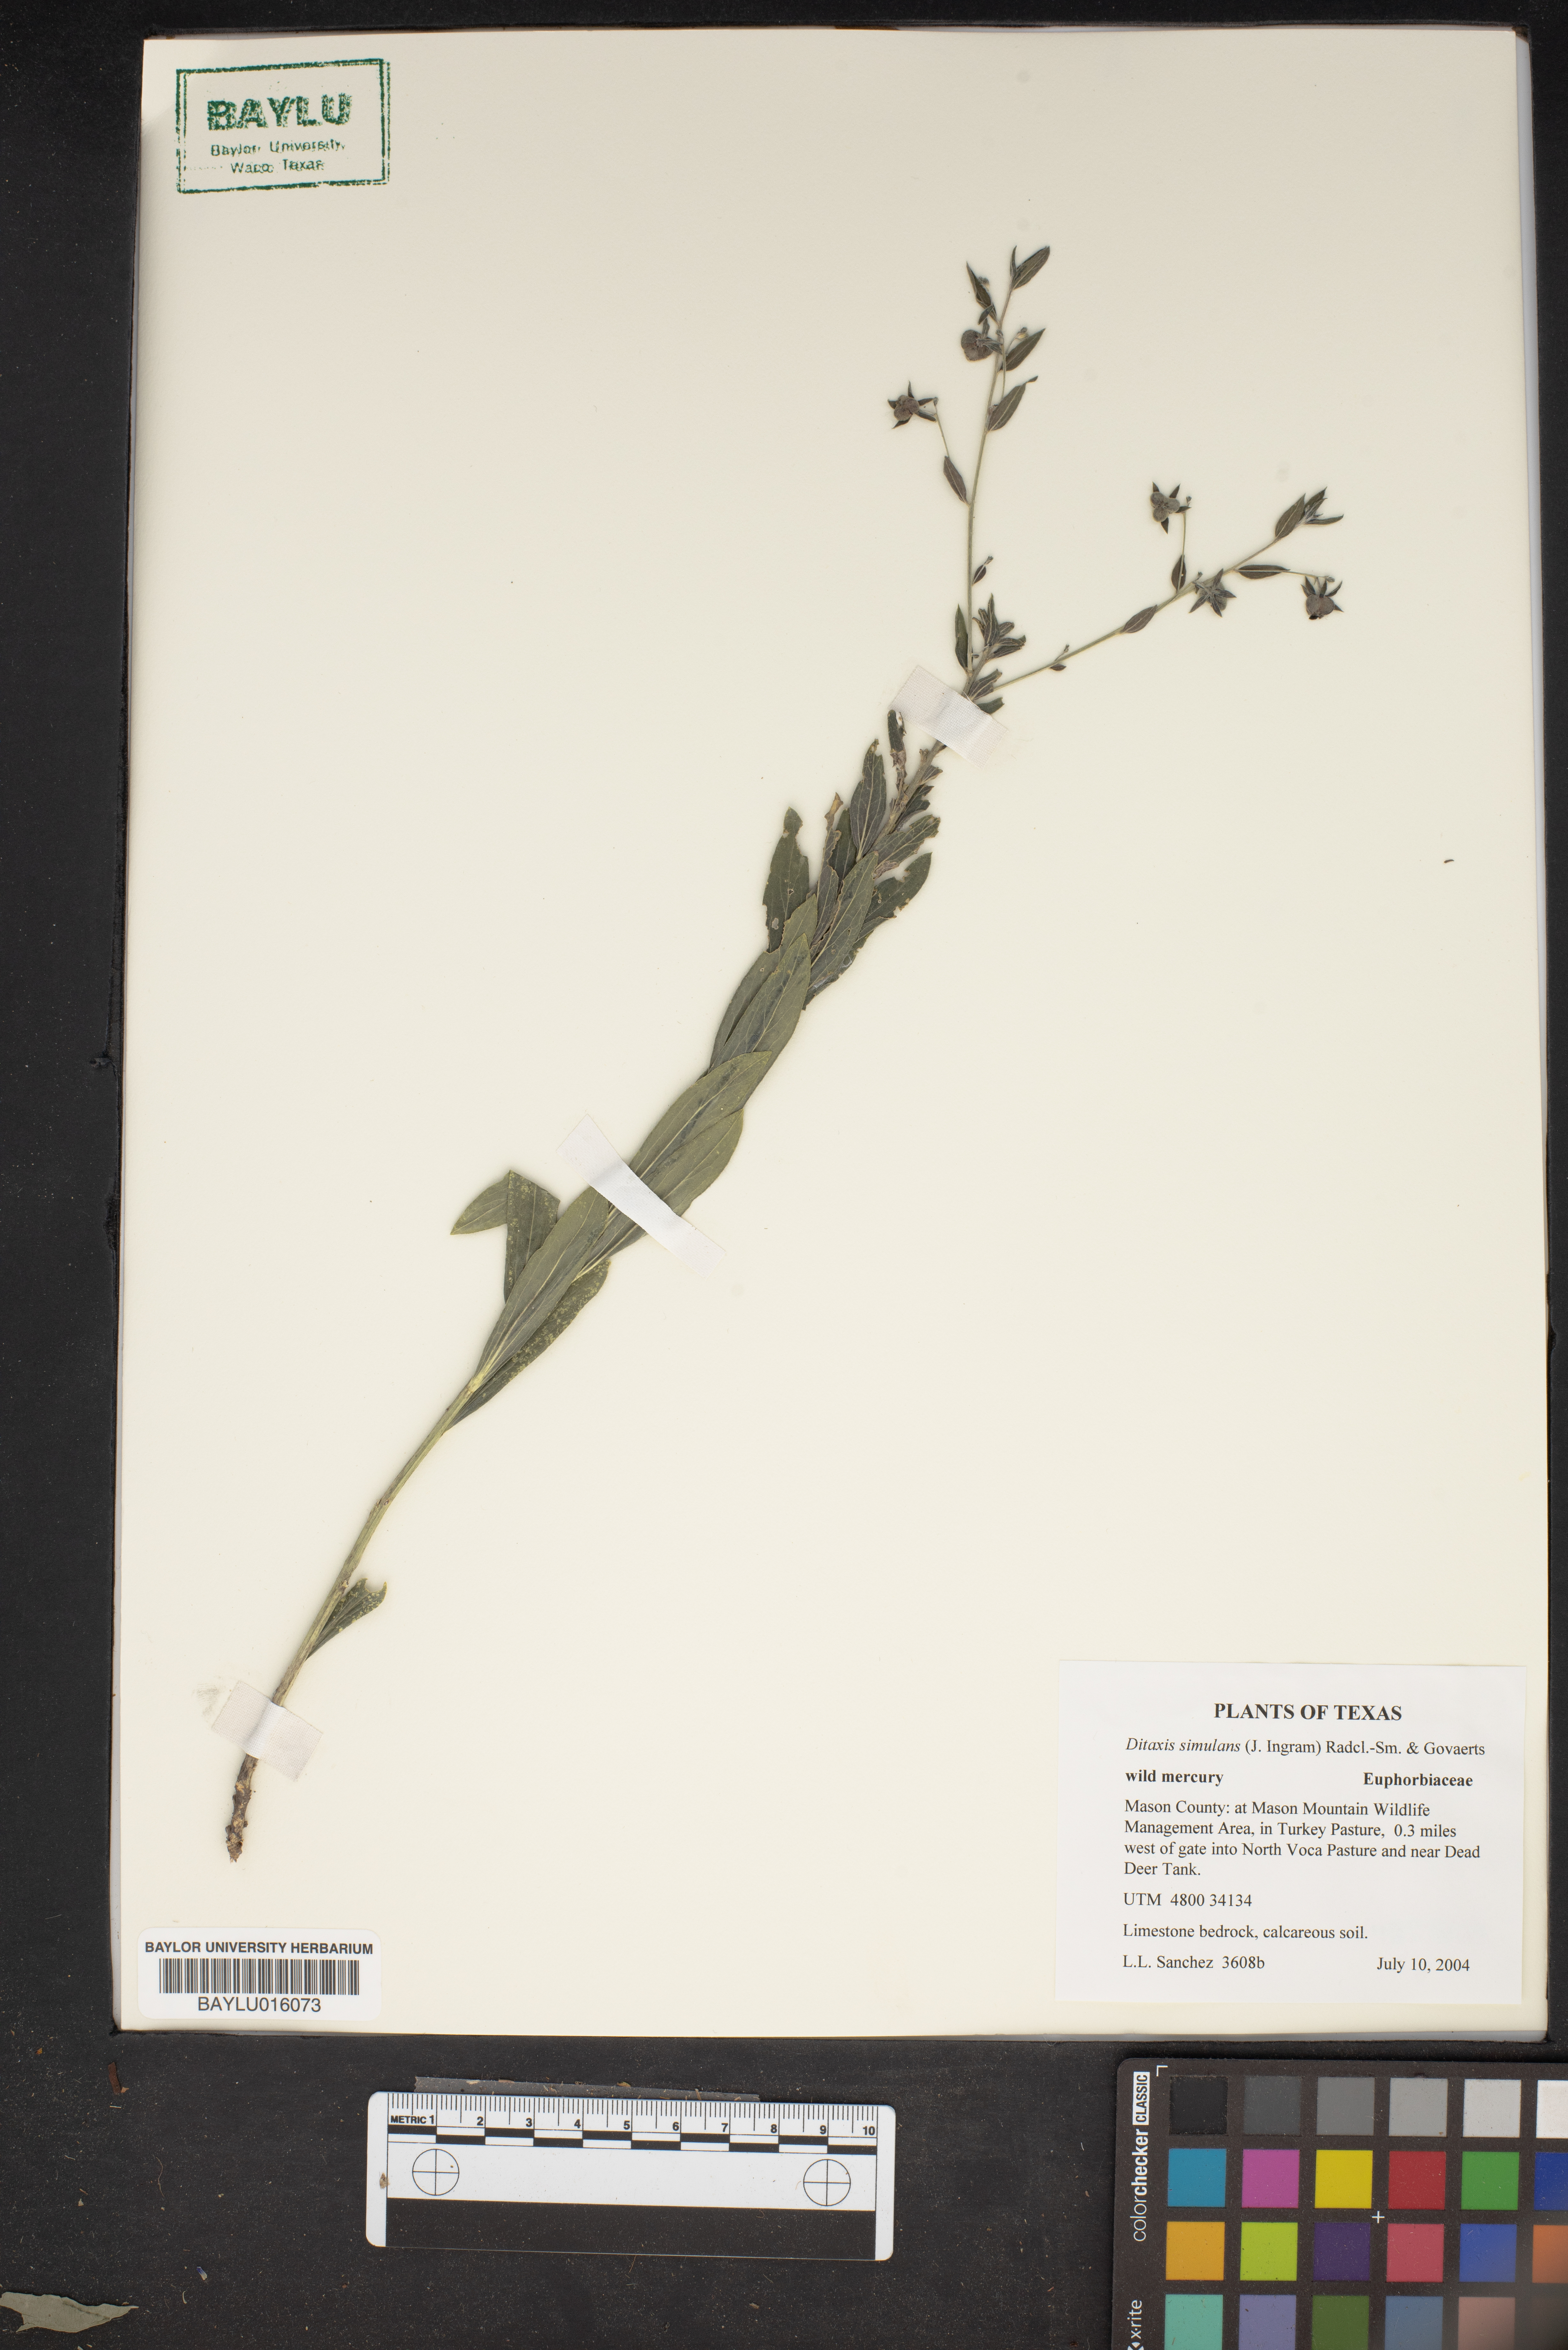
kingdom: Plantae
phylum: Tracheophyta
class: Magnoliopsida
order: Malpighiales
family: Euphorbiaceae
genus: Ditaxis
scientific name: Ditaxis simulans
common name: Plateau silverbush
